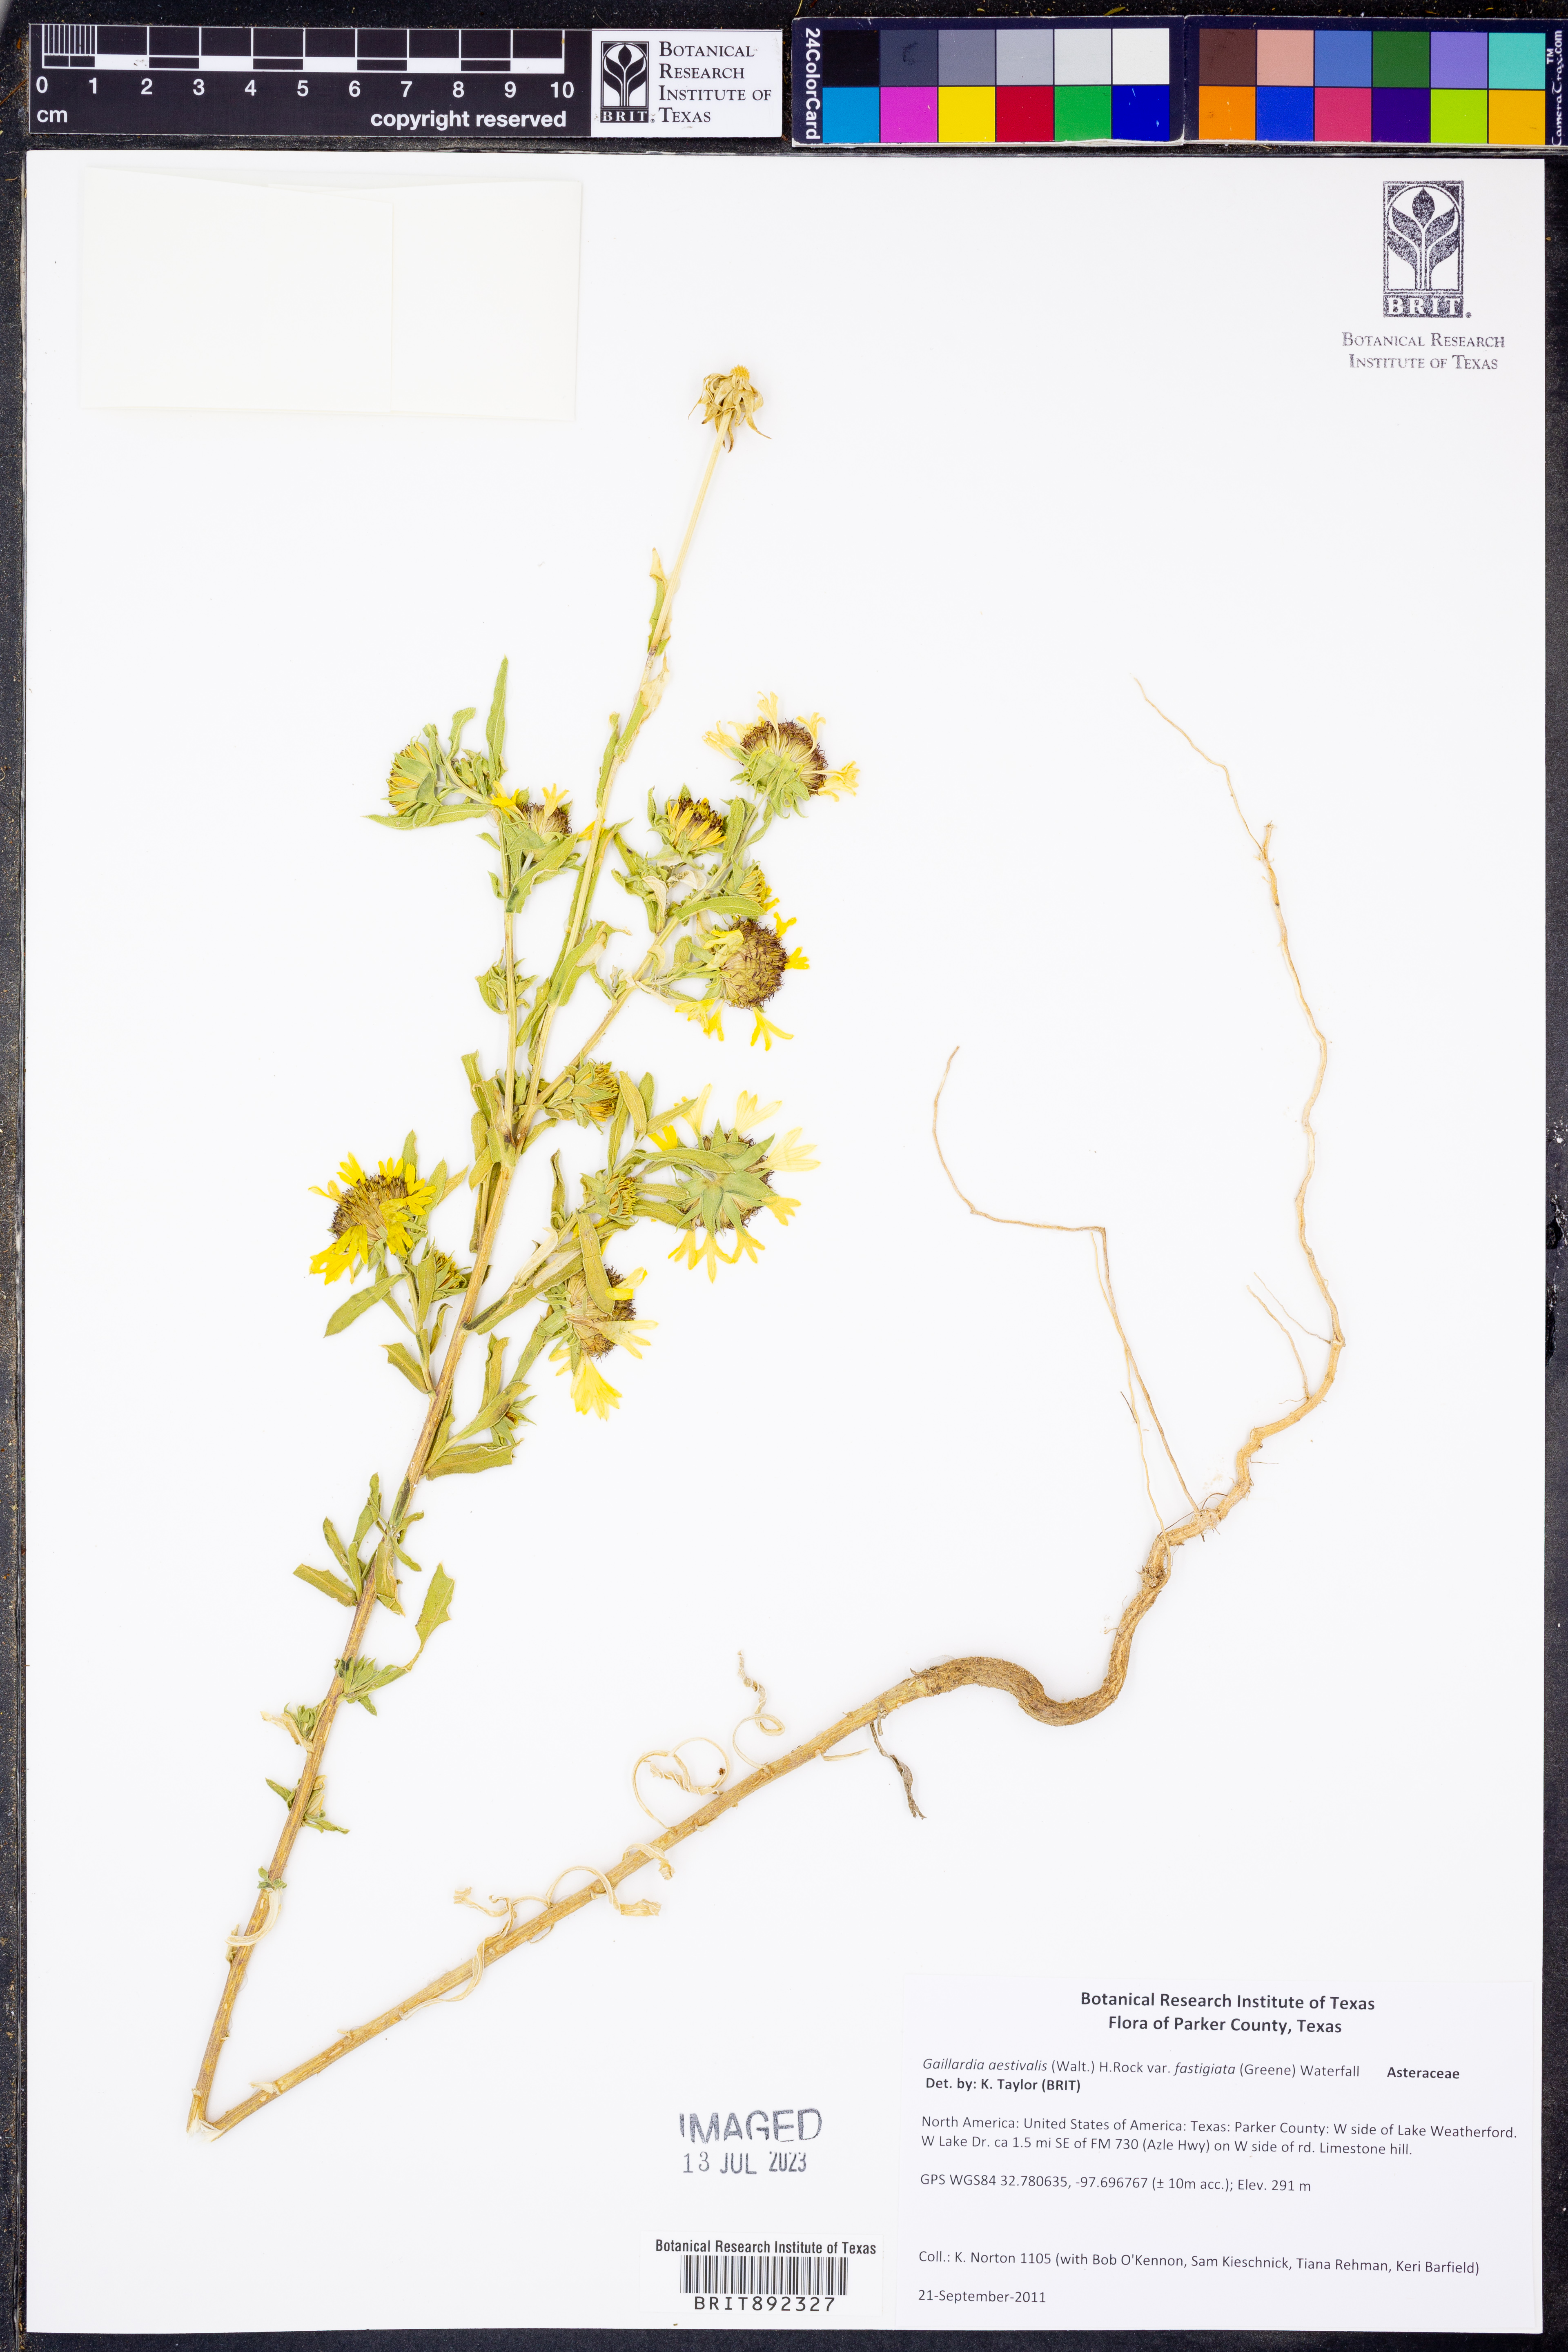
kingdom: Plantae
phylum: Tracheophyta
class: Magnoliopsida
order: Asterales
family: Asteraceae
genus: Gaillardia
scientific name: Gaillardia aestivalis
